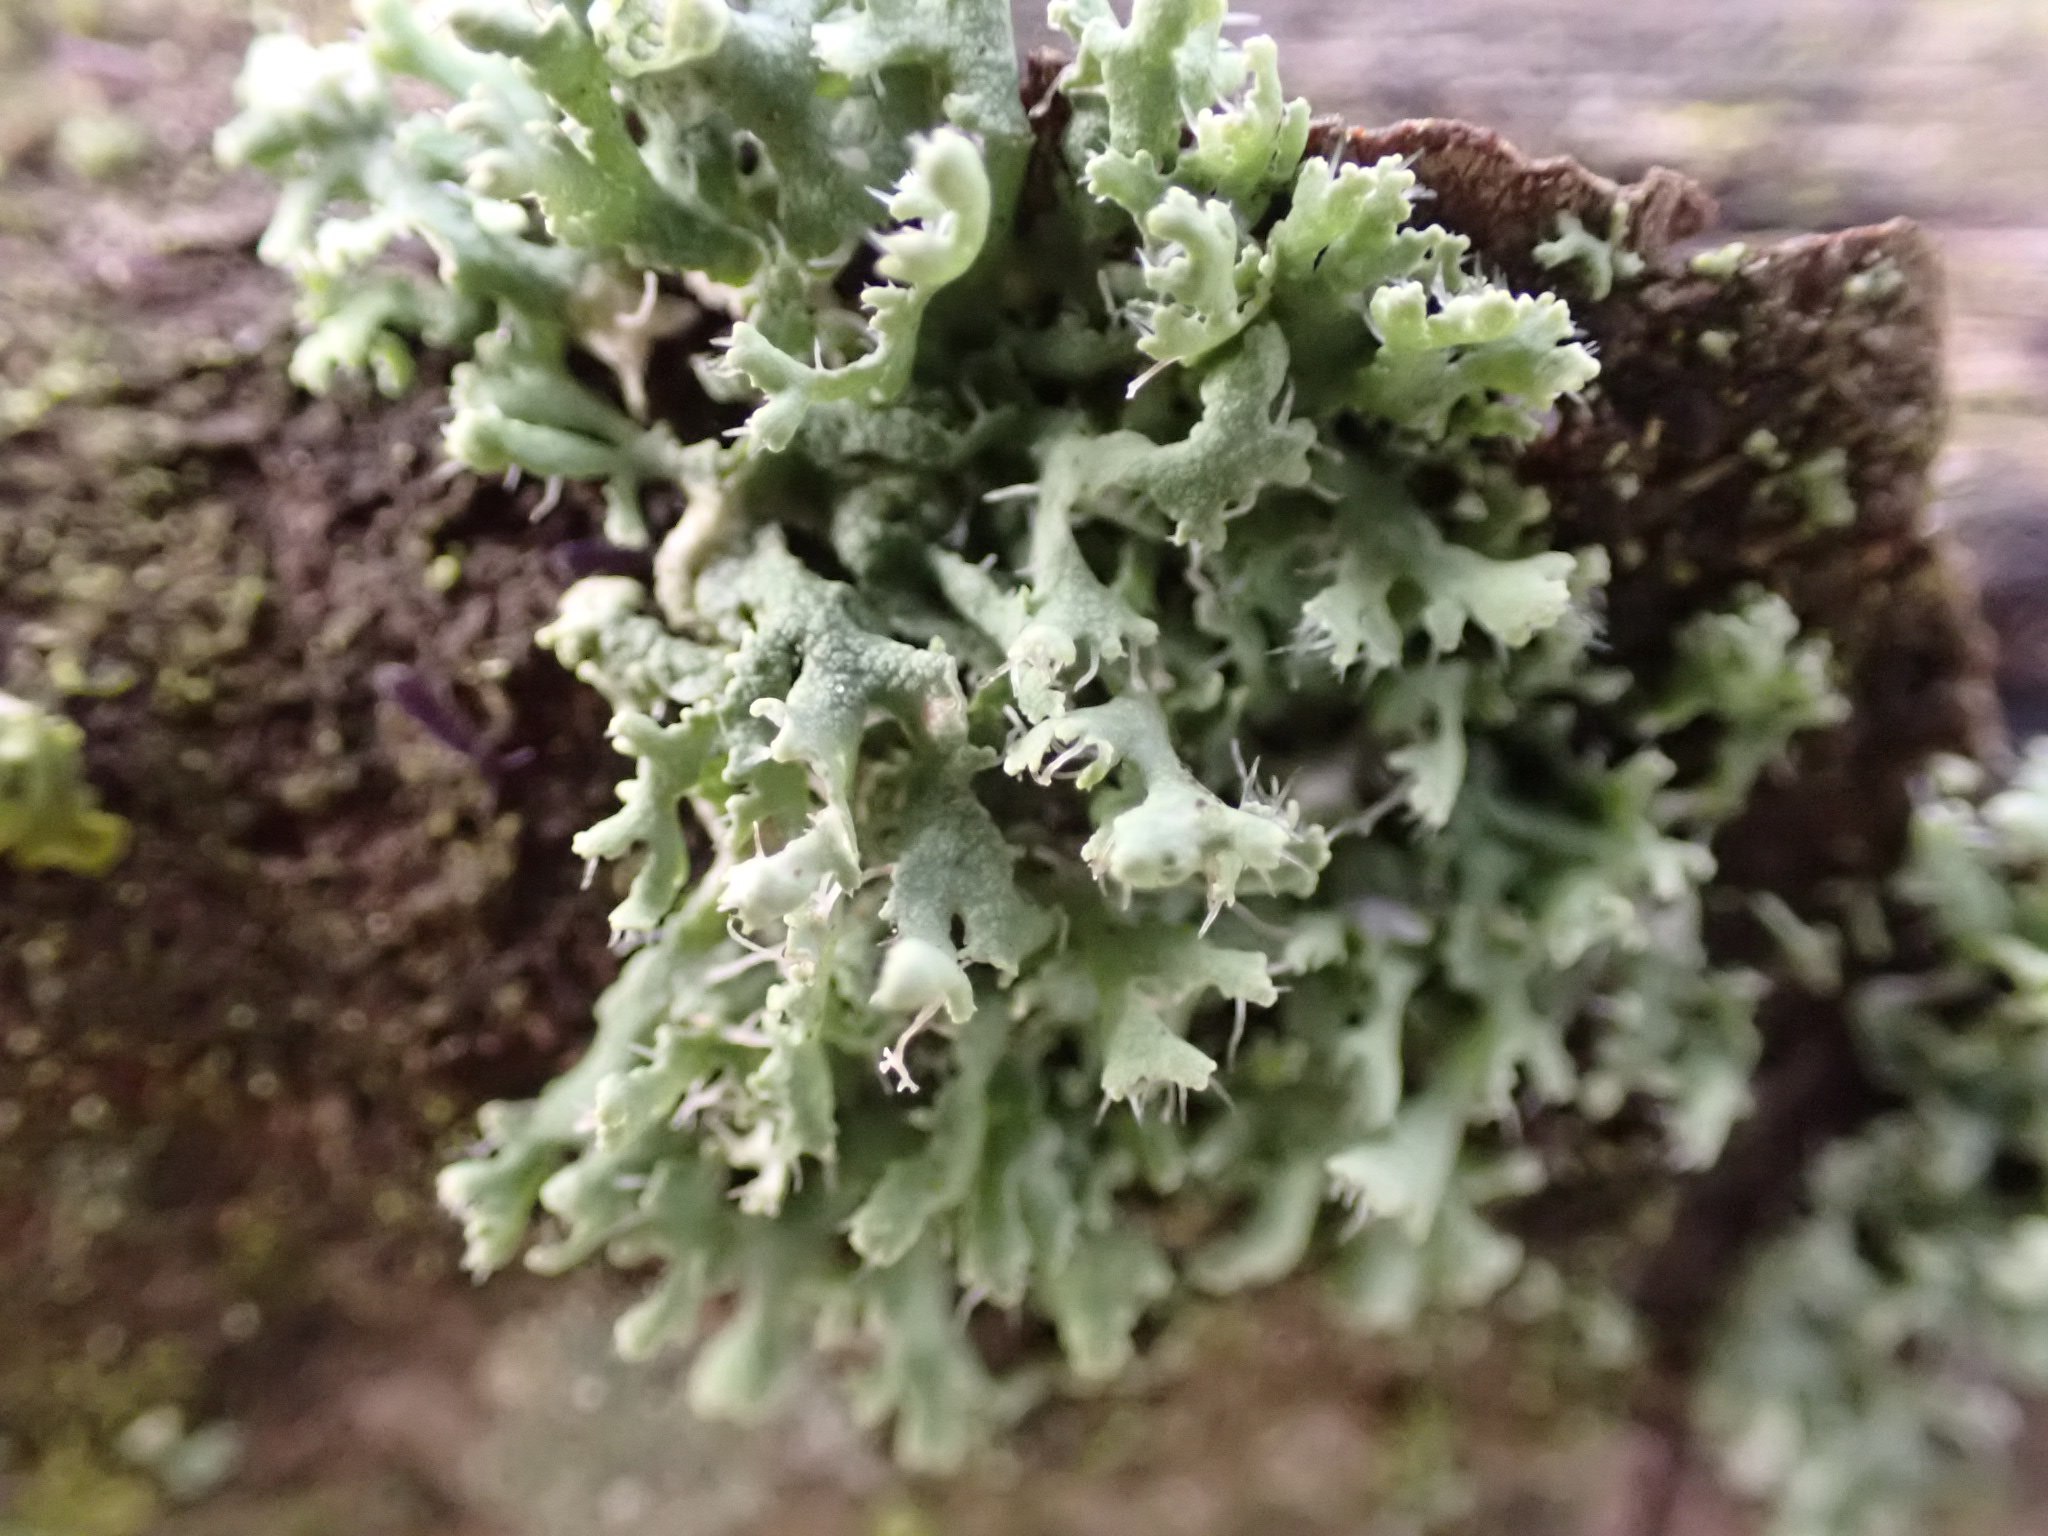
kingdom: Fungi
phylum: Ascomycota
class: Lecanoromycetes
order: Caliciales
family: Physciaceae
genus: Physcia
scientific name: Physcia adscendens
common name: hætte-rosetlav
